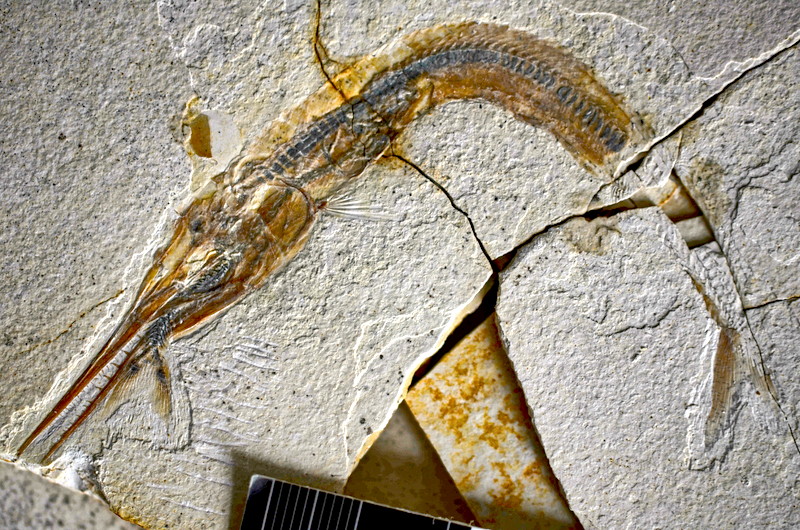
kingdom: Animalia
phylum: Chordata
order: Salmoniformes
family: Orthogonikleithridae
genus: Orthogonikleithrus
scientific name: Orthogonikleithrus hoelli
